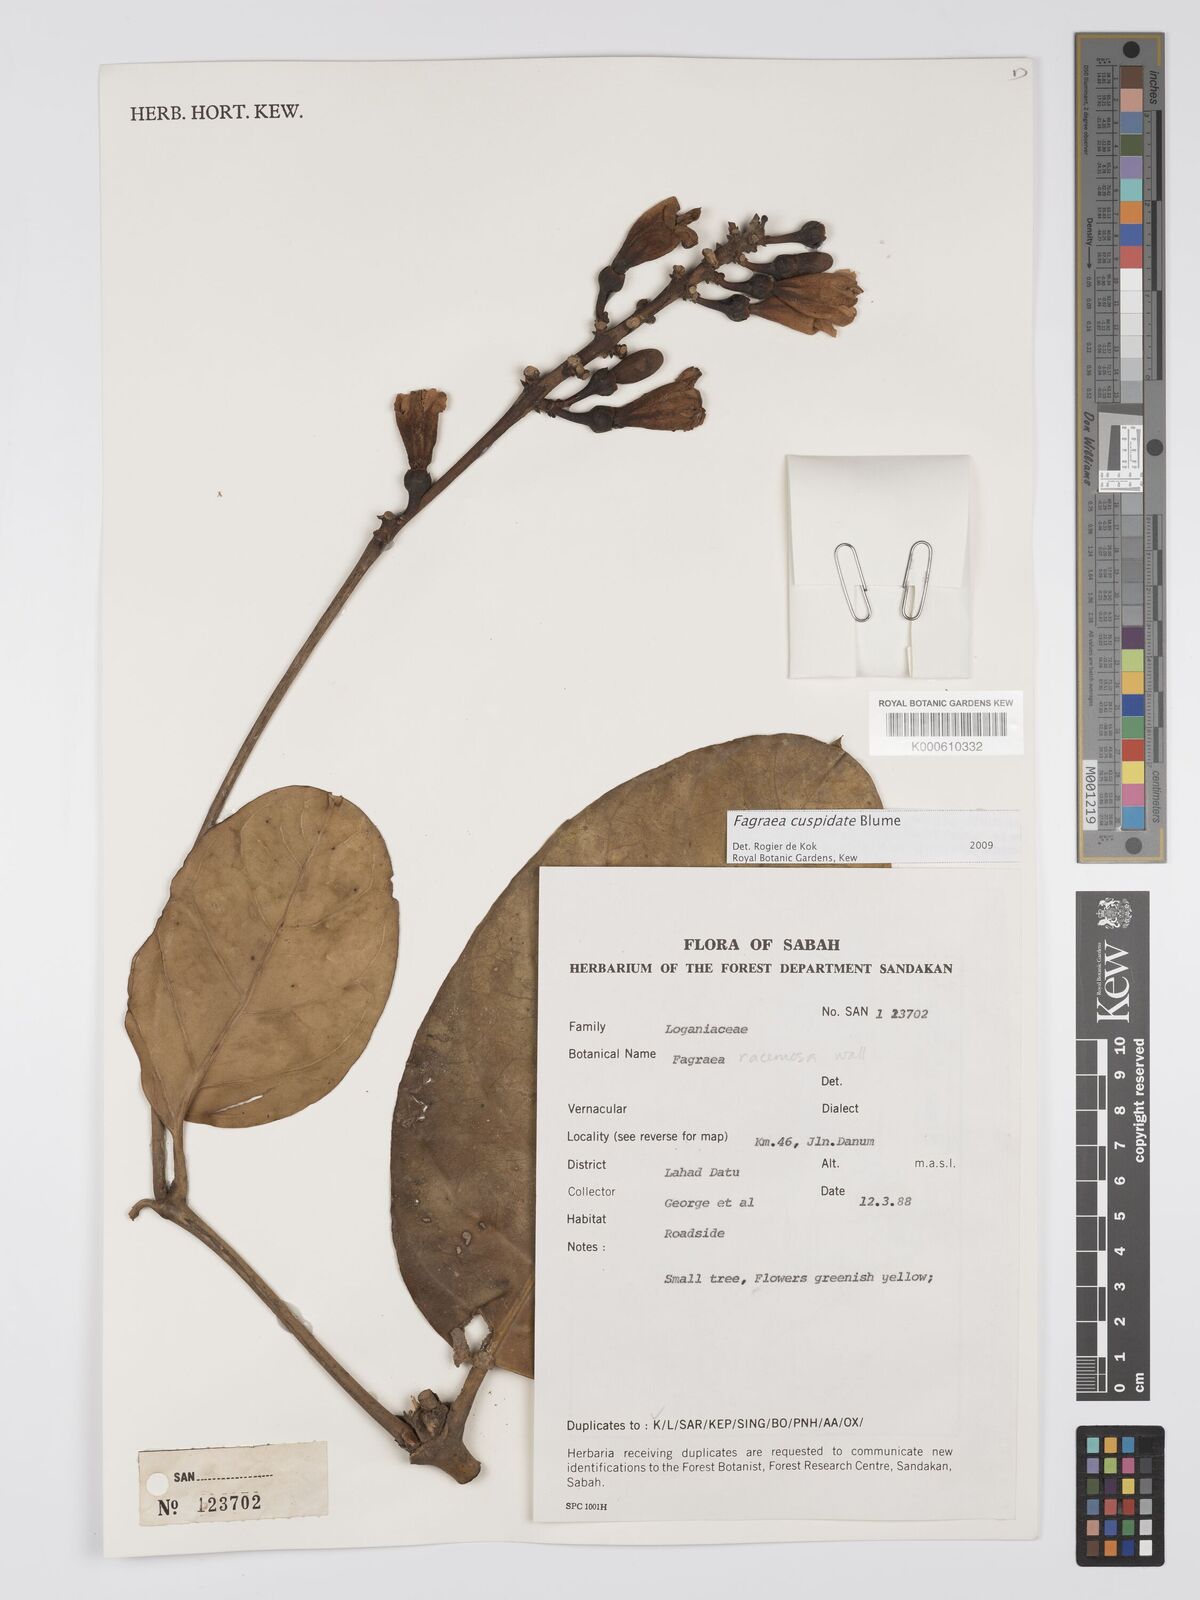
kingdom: Plantae
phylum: Tracheophyta
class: Magnoliopsida
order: Gentianales
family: Gentianaceae
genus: Utania
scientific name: Utania cuspidata
